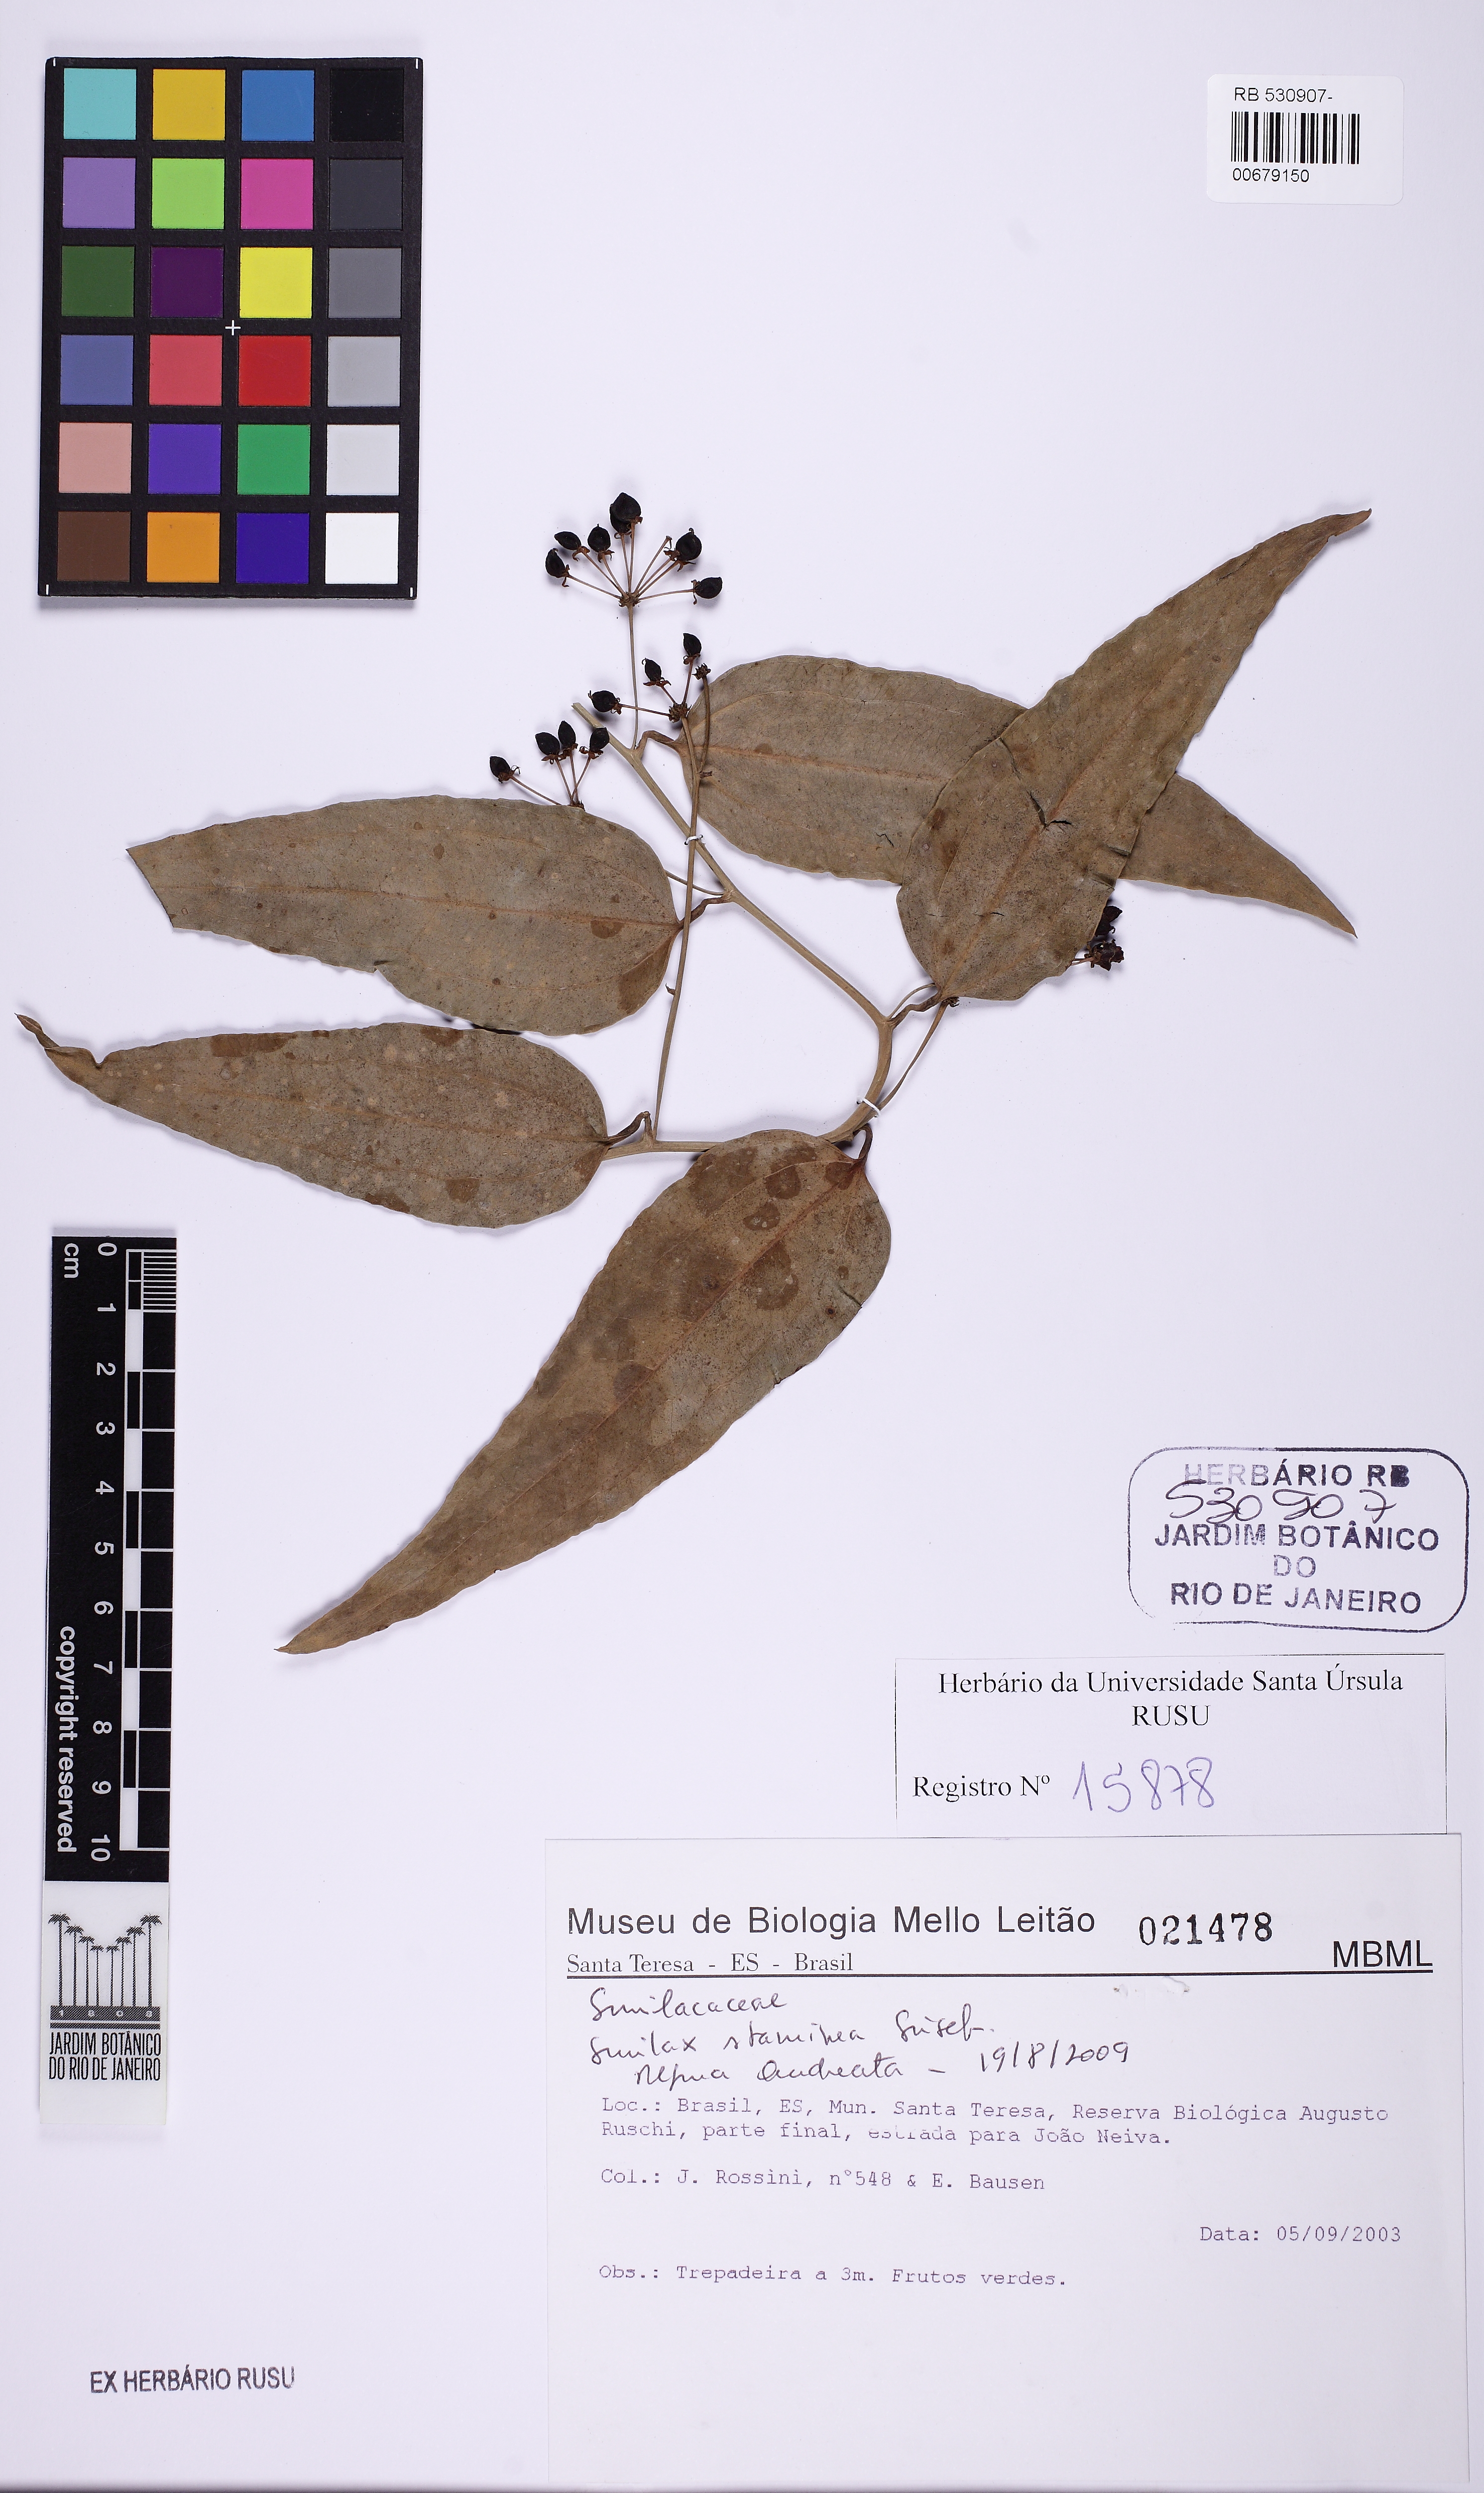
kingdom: Plantae
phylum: Tracheophyta
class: Liliopsida
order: Liliales
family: Smilacaceae
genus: Smilax
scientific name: Smilax domingensis
